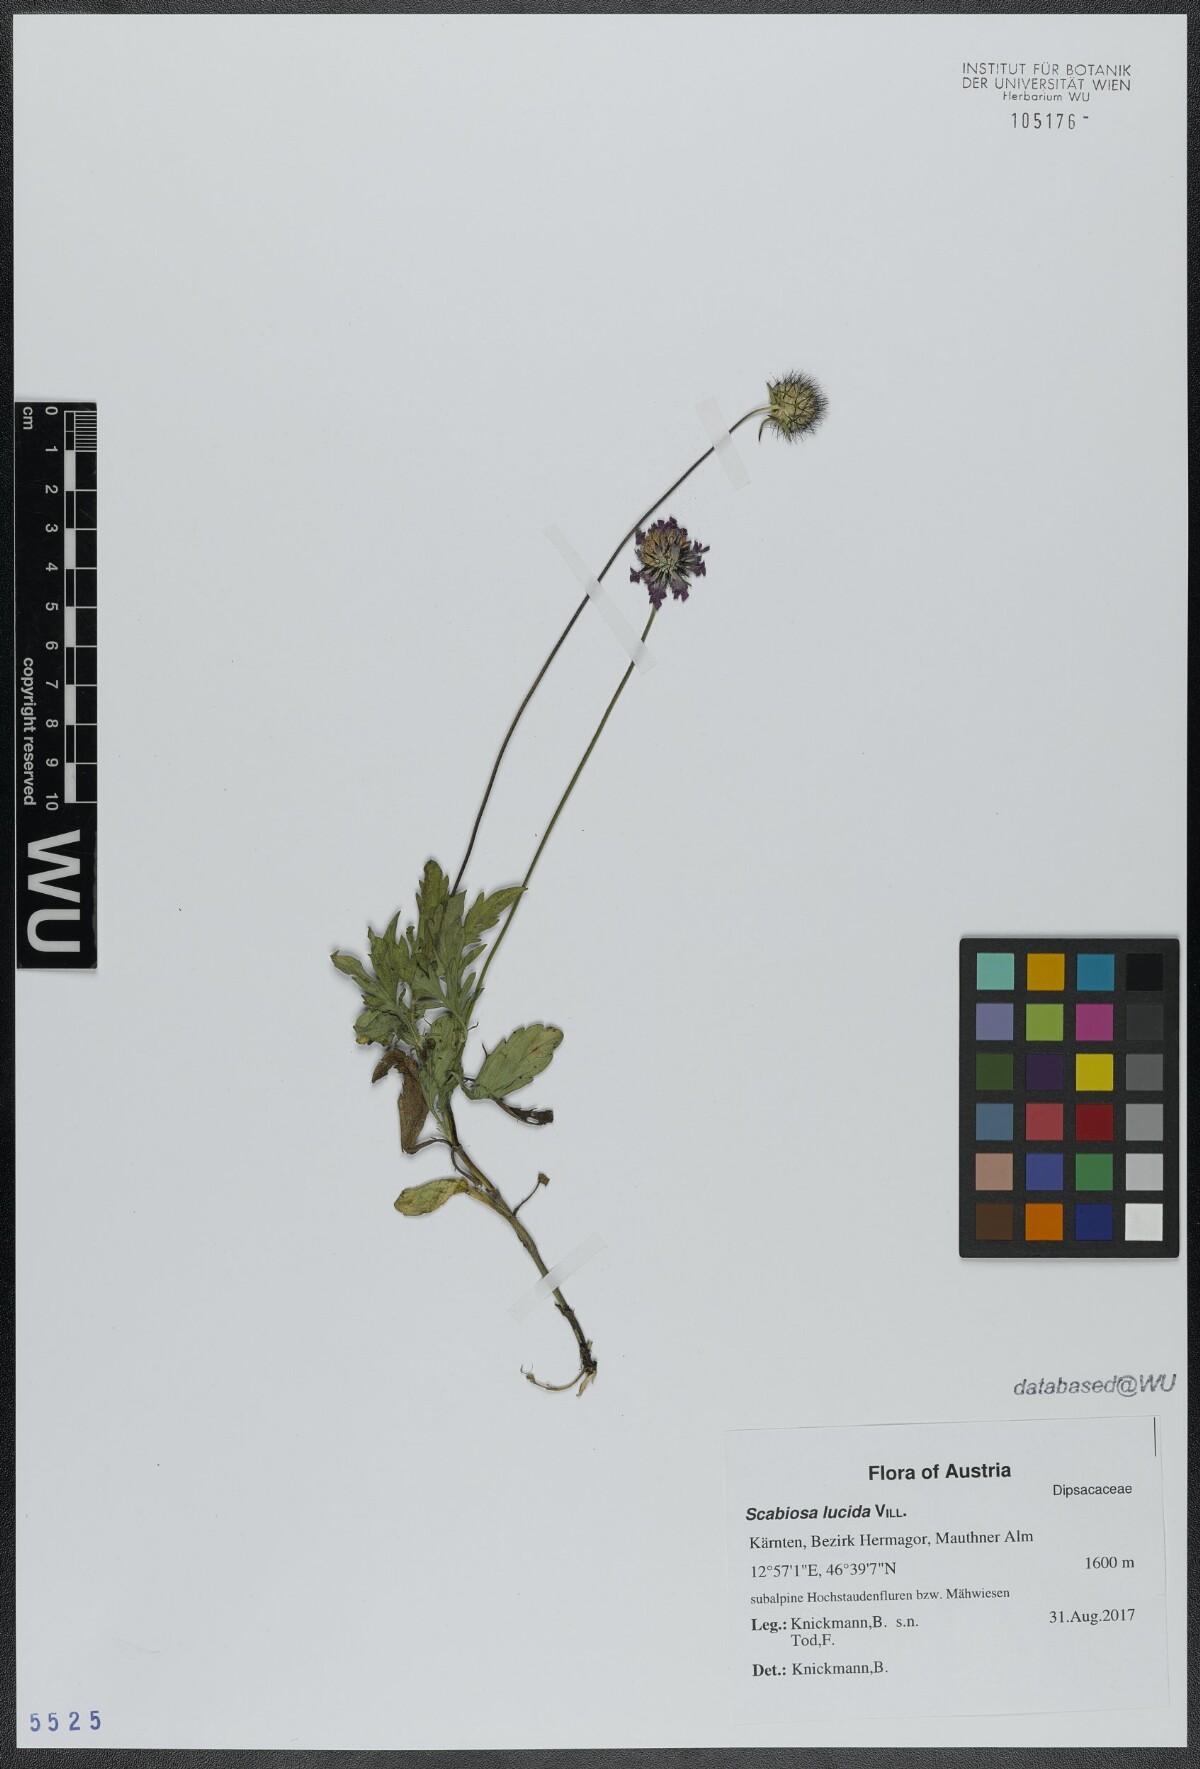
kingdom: Plantae
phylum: Tracheophyta
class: Magnoliopsida
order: Dipsacales
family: Caprifoliaceae
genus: Scabiosa
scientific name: Scabiosa lucida
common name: Shining scabious
